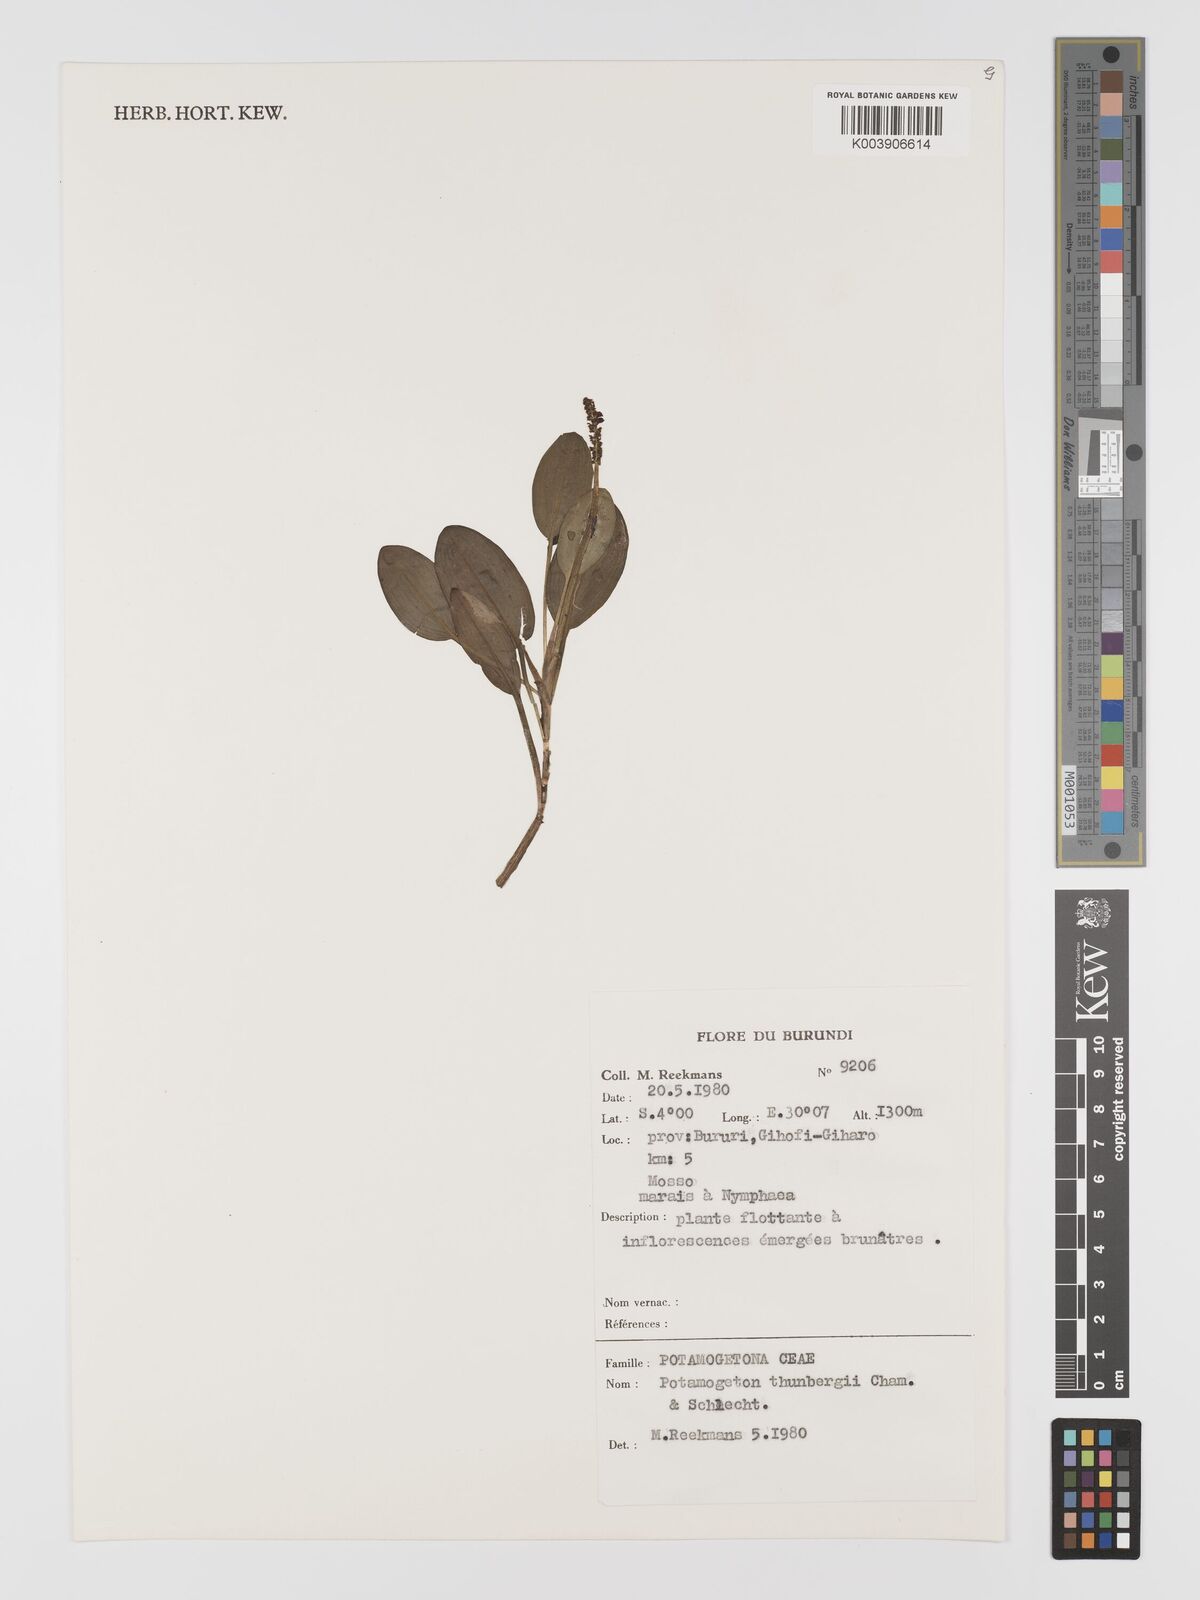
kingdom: Plantae
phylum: Tracheophyta
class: Liliopsida
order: Alismatales
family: Potamogetonaceae
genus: Potamogeton
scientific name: Potamogeton nodosus
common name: Loddon pondweed
